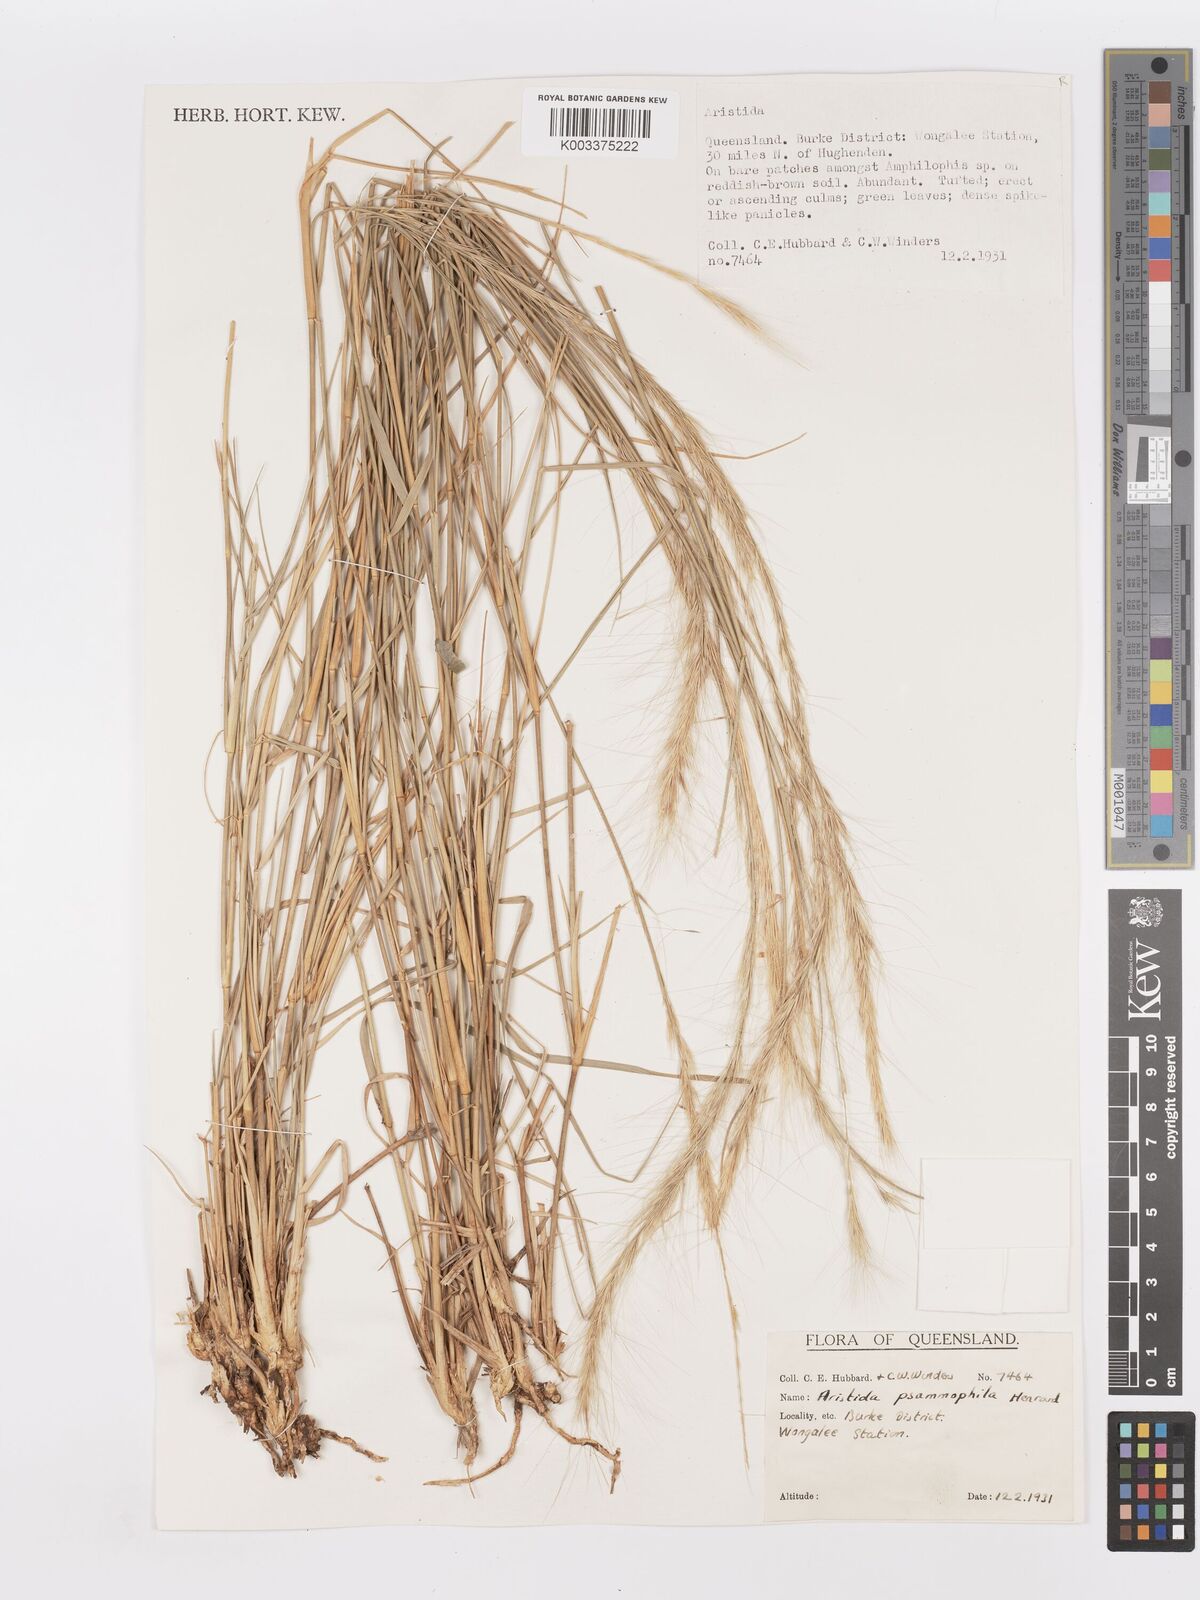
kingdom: Plantae
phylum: Tracheophyta
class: Liliopsida
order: Poales
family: Poaceae
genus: Aristida
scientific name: Aristida psammophila
